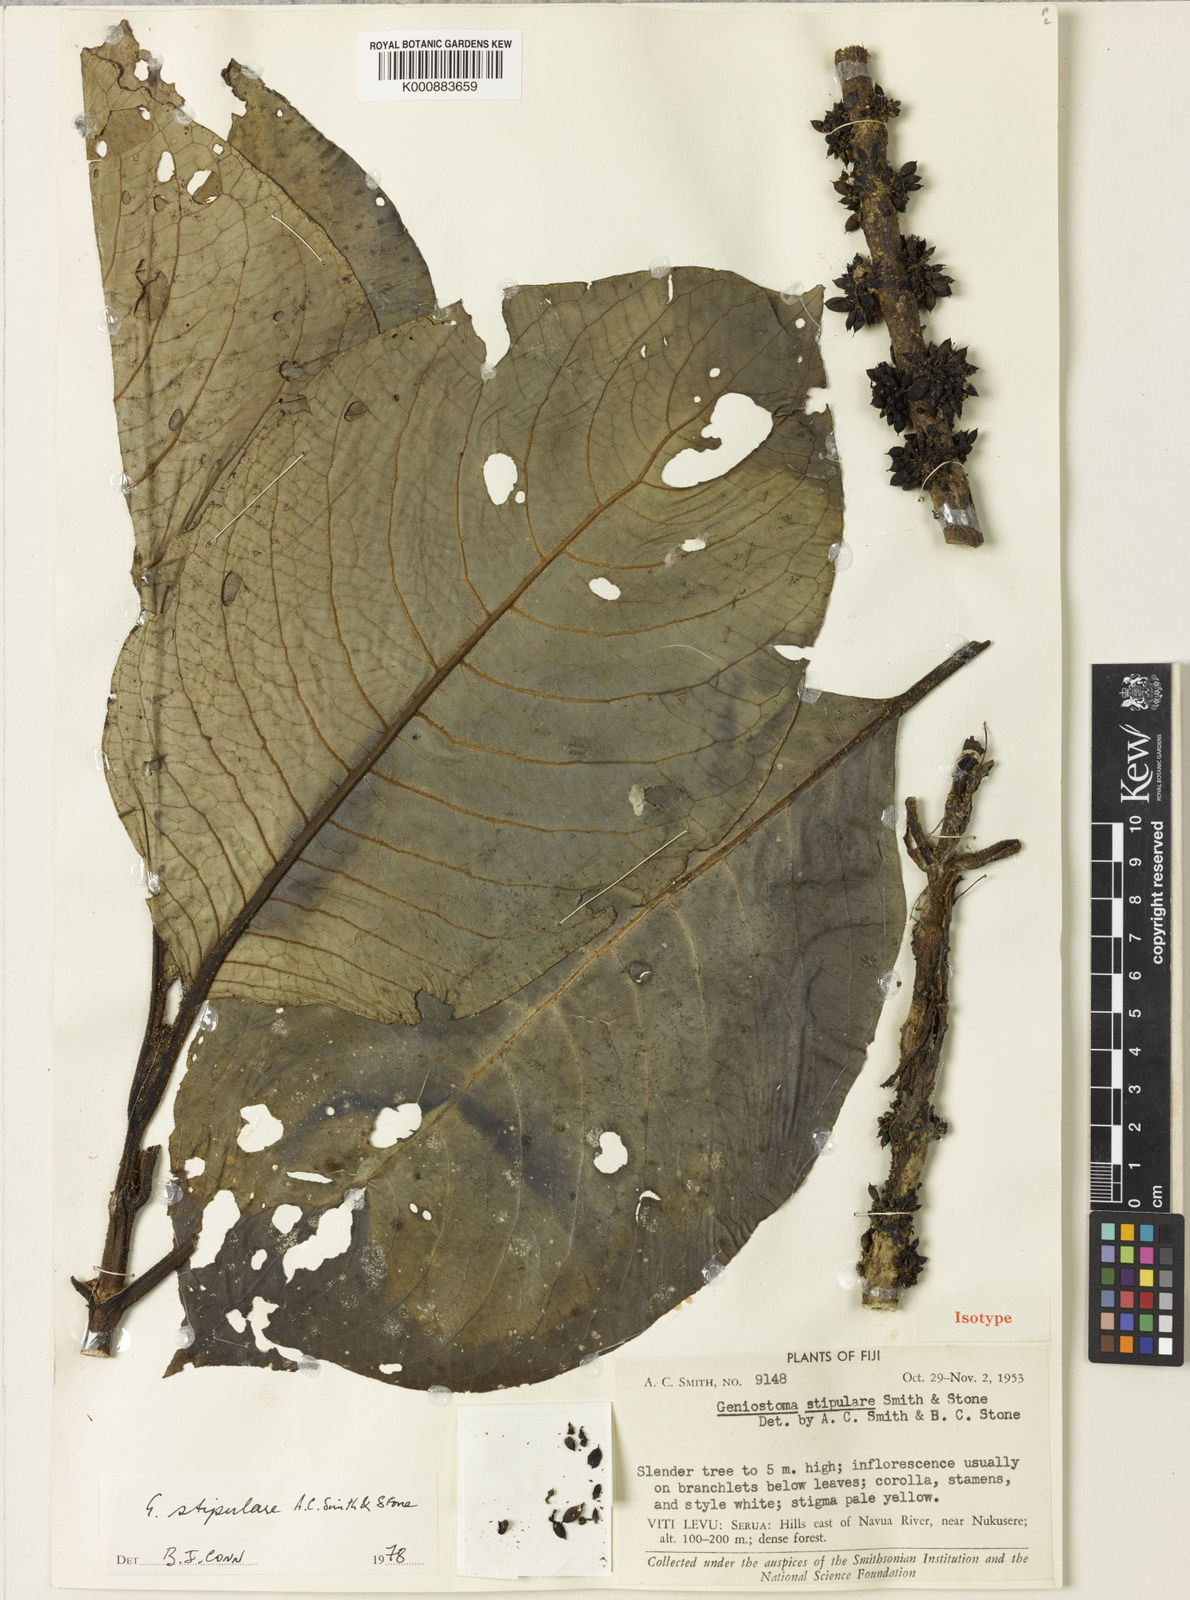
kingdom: Plantae
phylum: Tracheophyta
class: Magnoliopsida
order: Gentianales
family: Loganiaceae
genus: Geniostoma
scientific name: Geniostoma stipulare
